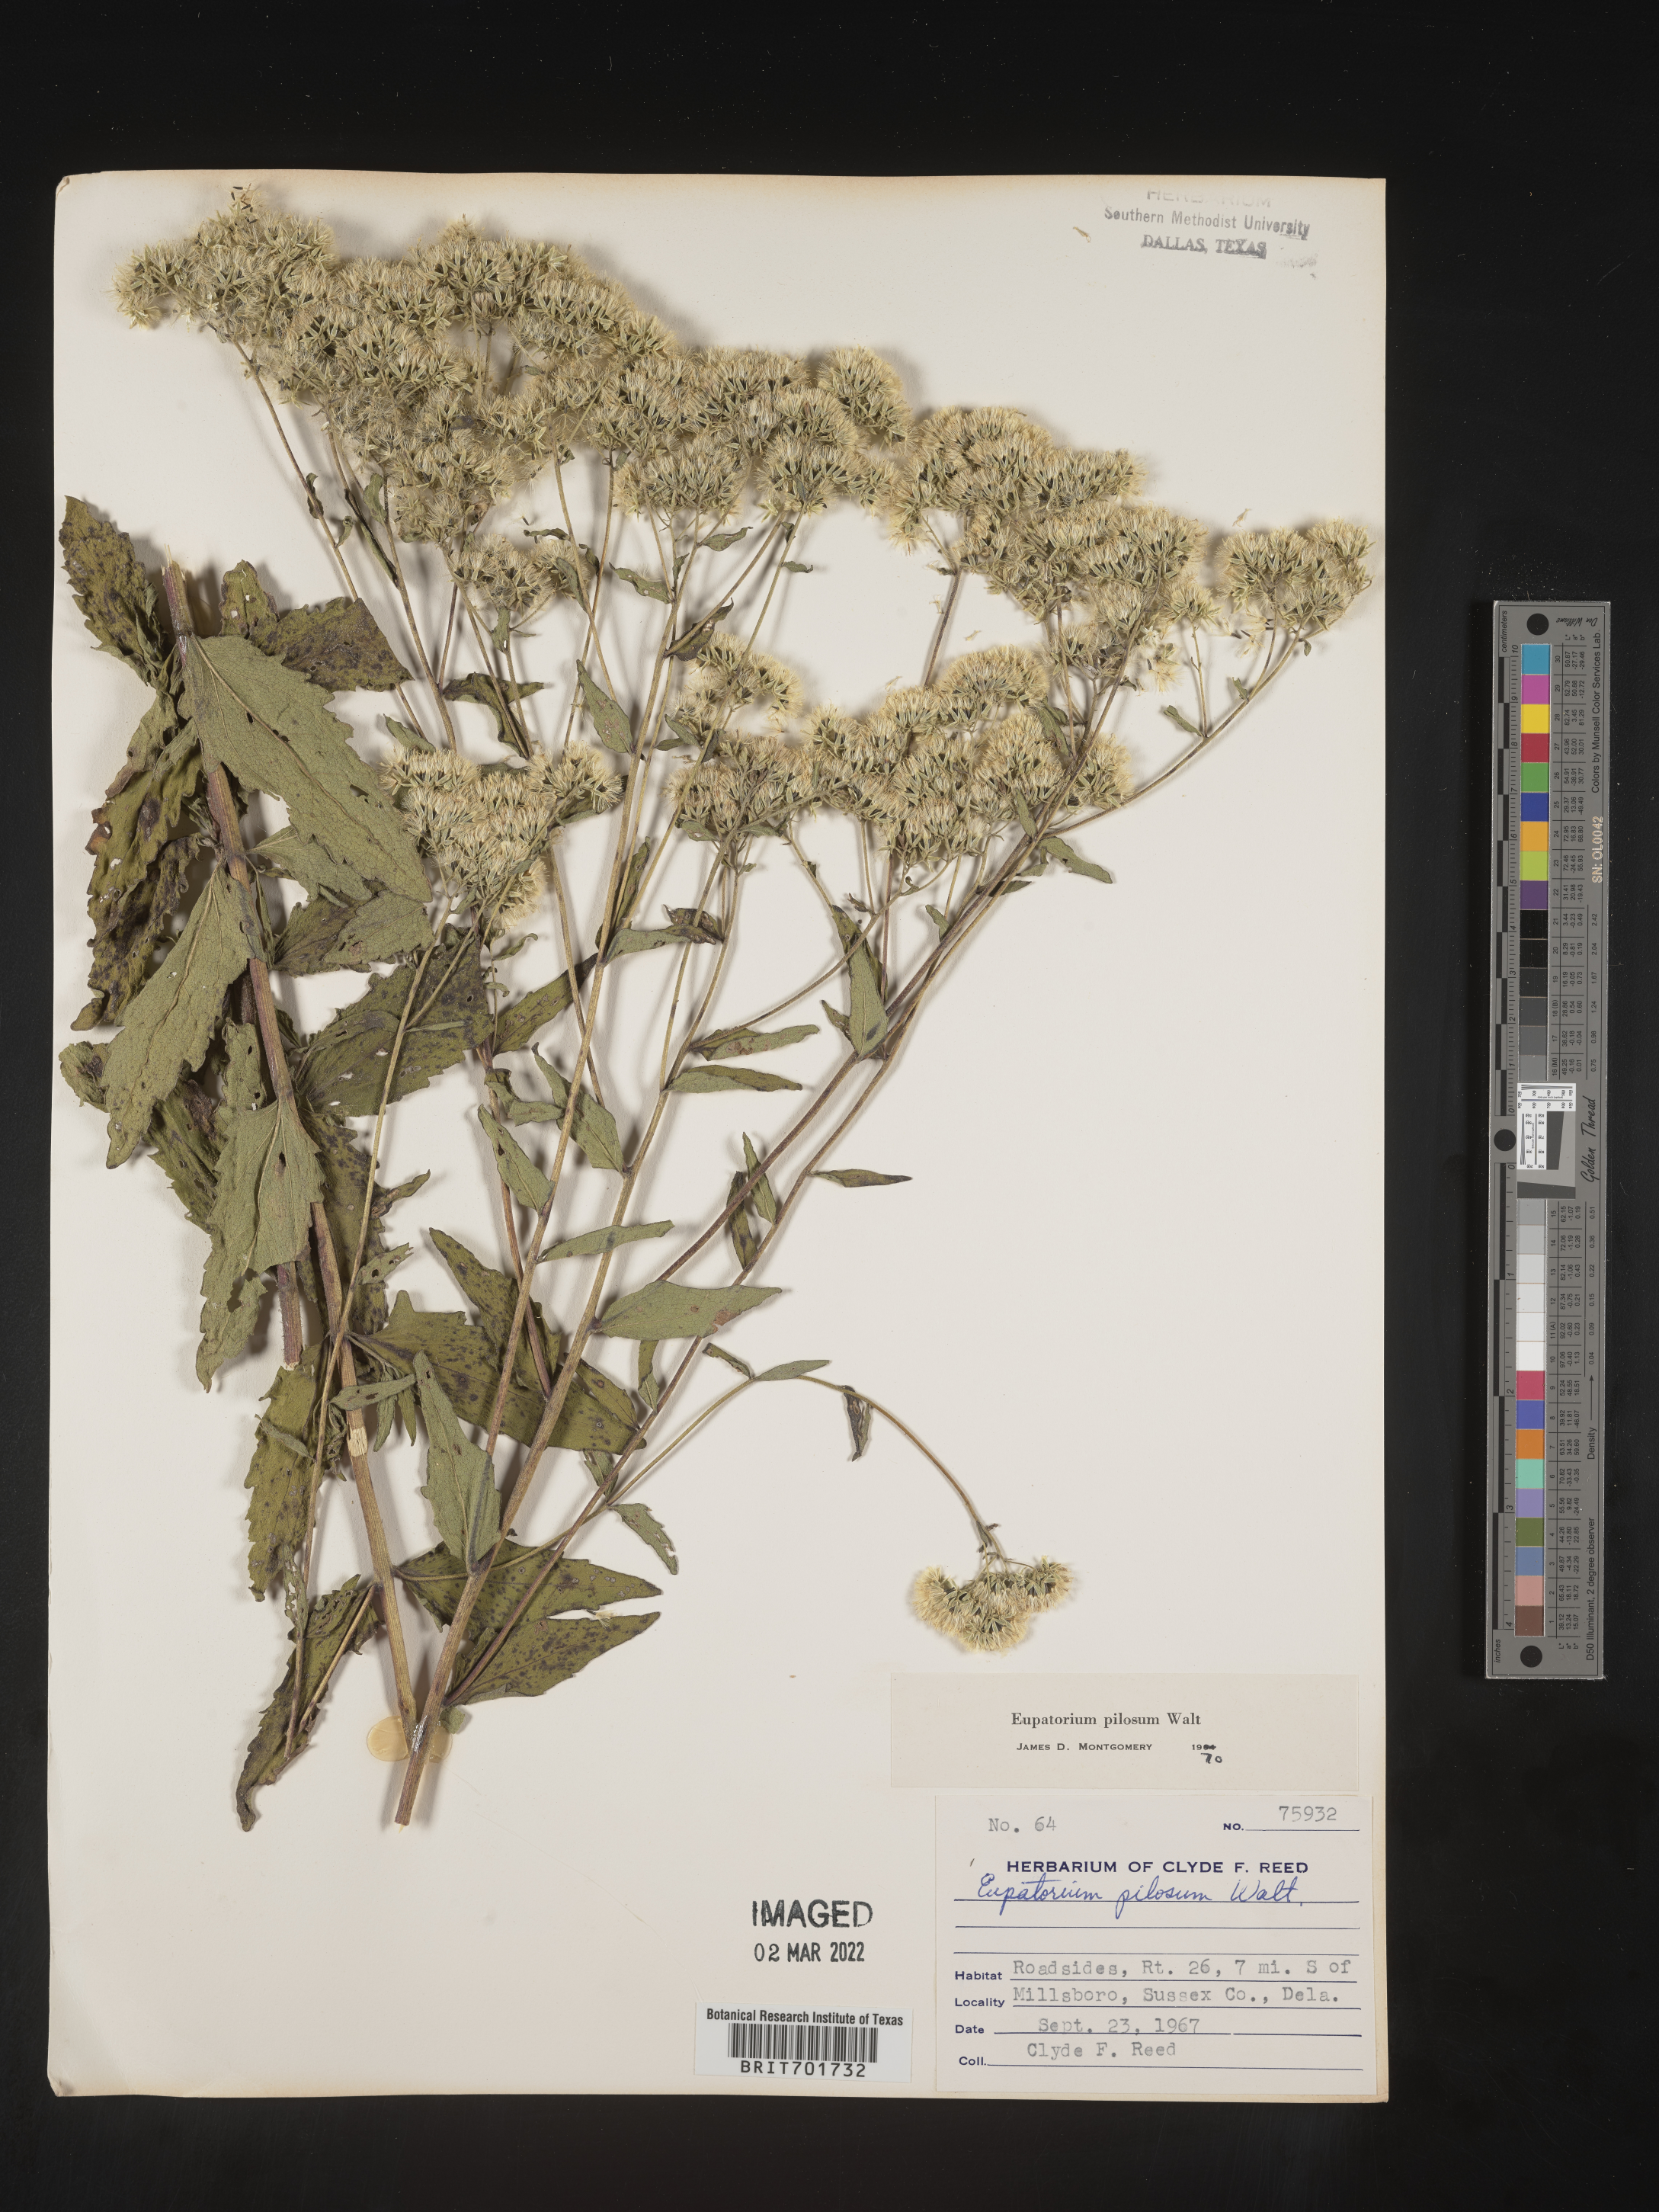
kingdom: Plantae
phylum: Tracheophyta
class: Magnoliopsida
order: Asterales
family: Asteraceae
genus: Eupatorium
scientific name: Eupatorium pilosum
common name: Rough boneset
